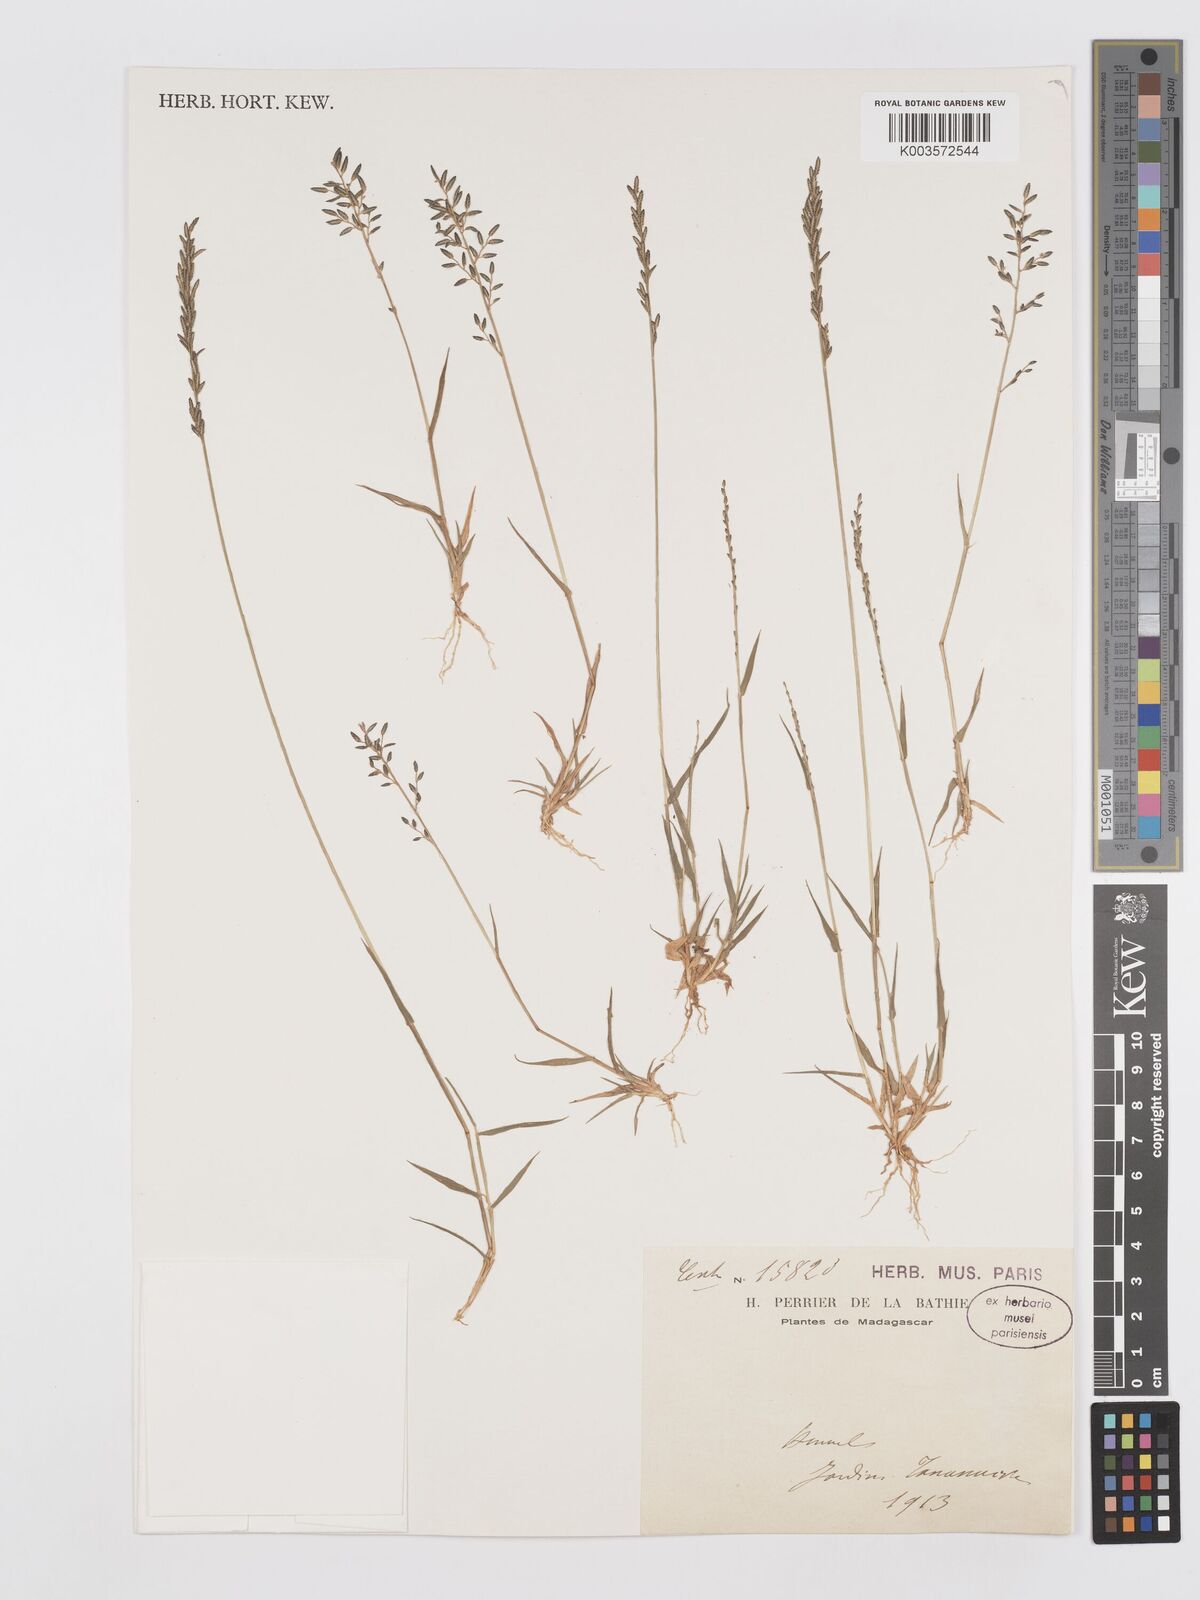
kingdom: Plantae
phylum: Tracheophyta
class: Liliopsida
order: Poales
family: Poaceae
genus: Eragrostis
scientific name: Eragrostis lateritica
